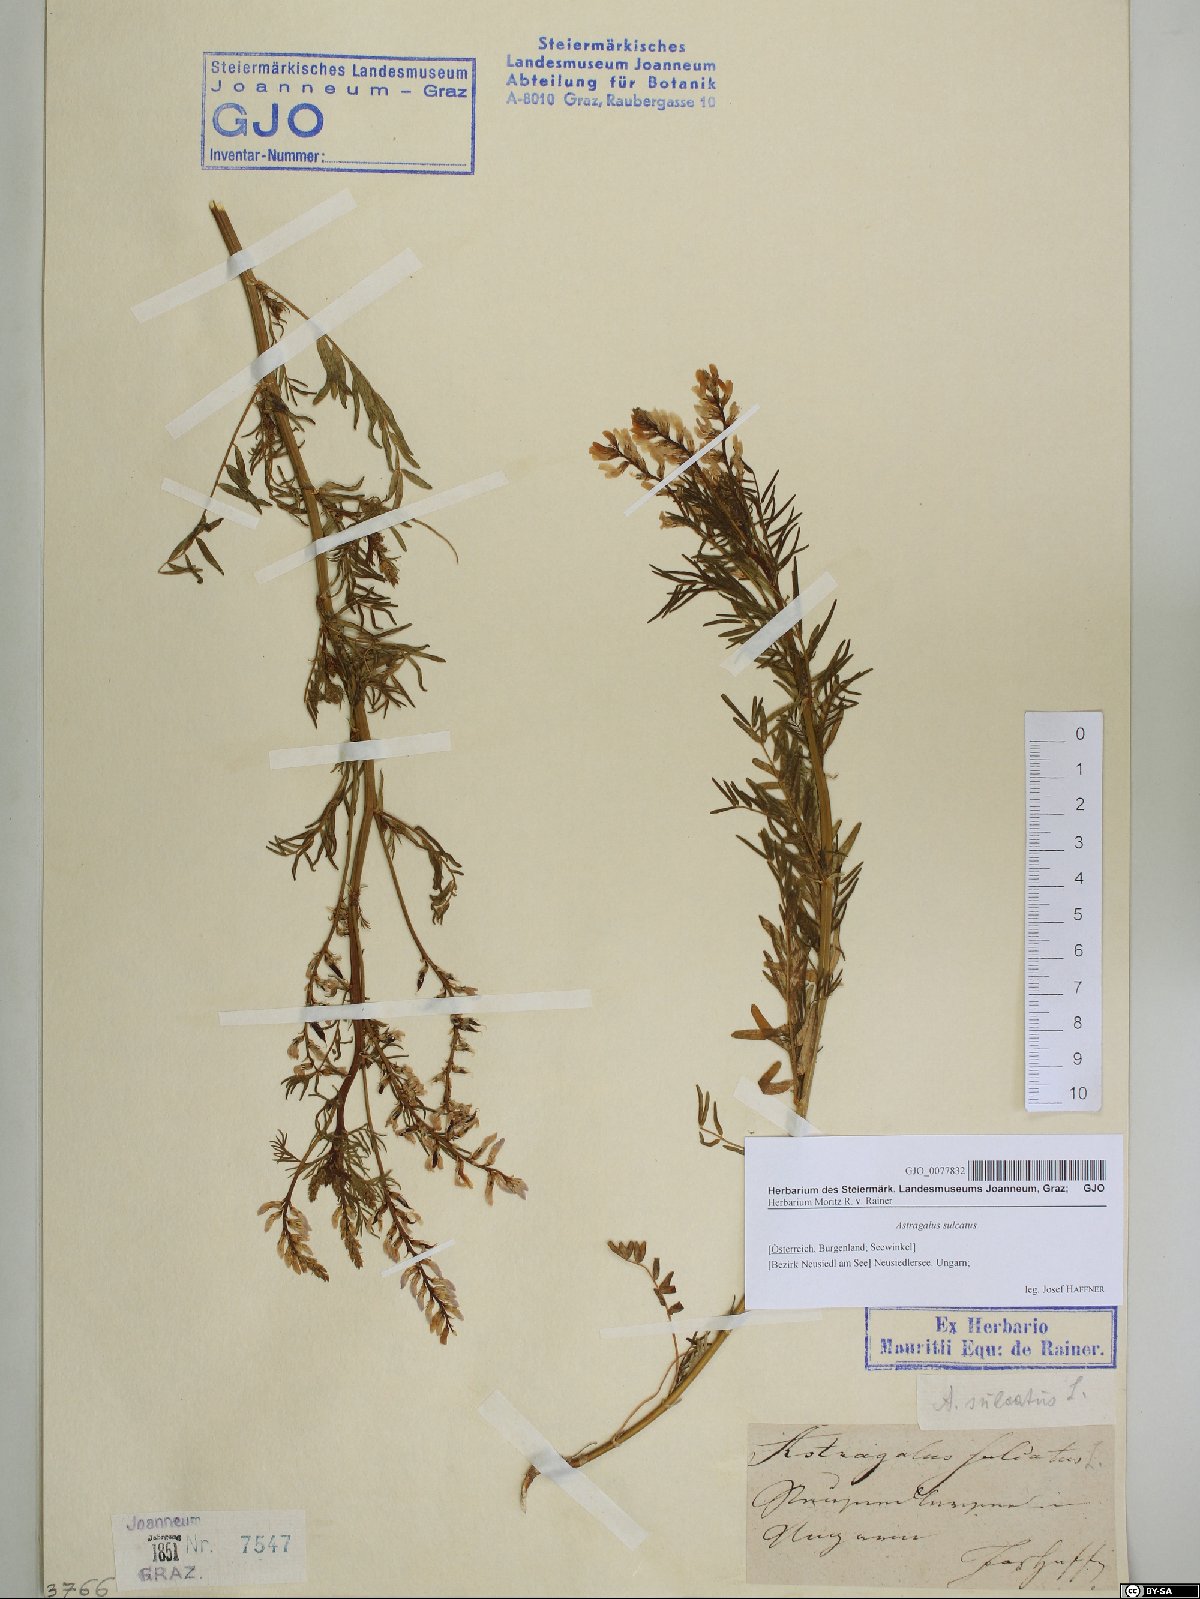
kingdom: Plantae
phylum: Tracheophyta
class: Magnoliopsida
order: Fabales
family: Fabaceae
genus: Astragalus
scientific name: Astragalus sulcatus
